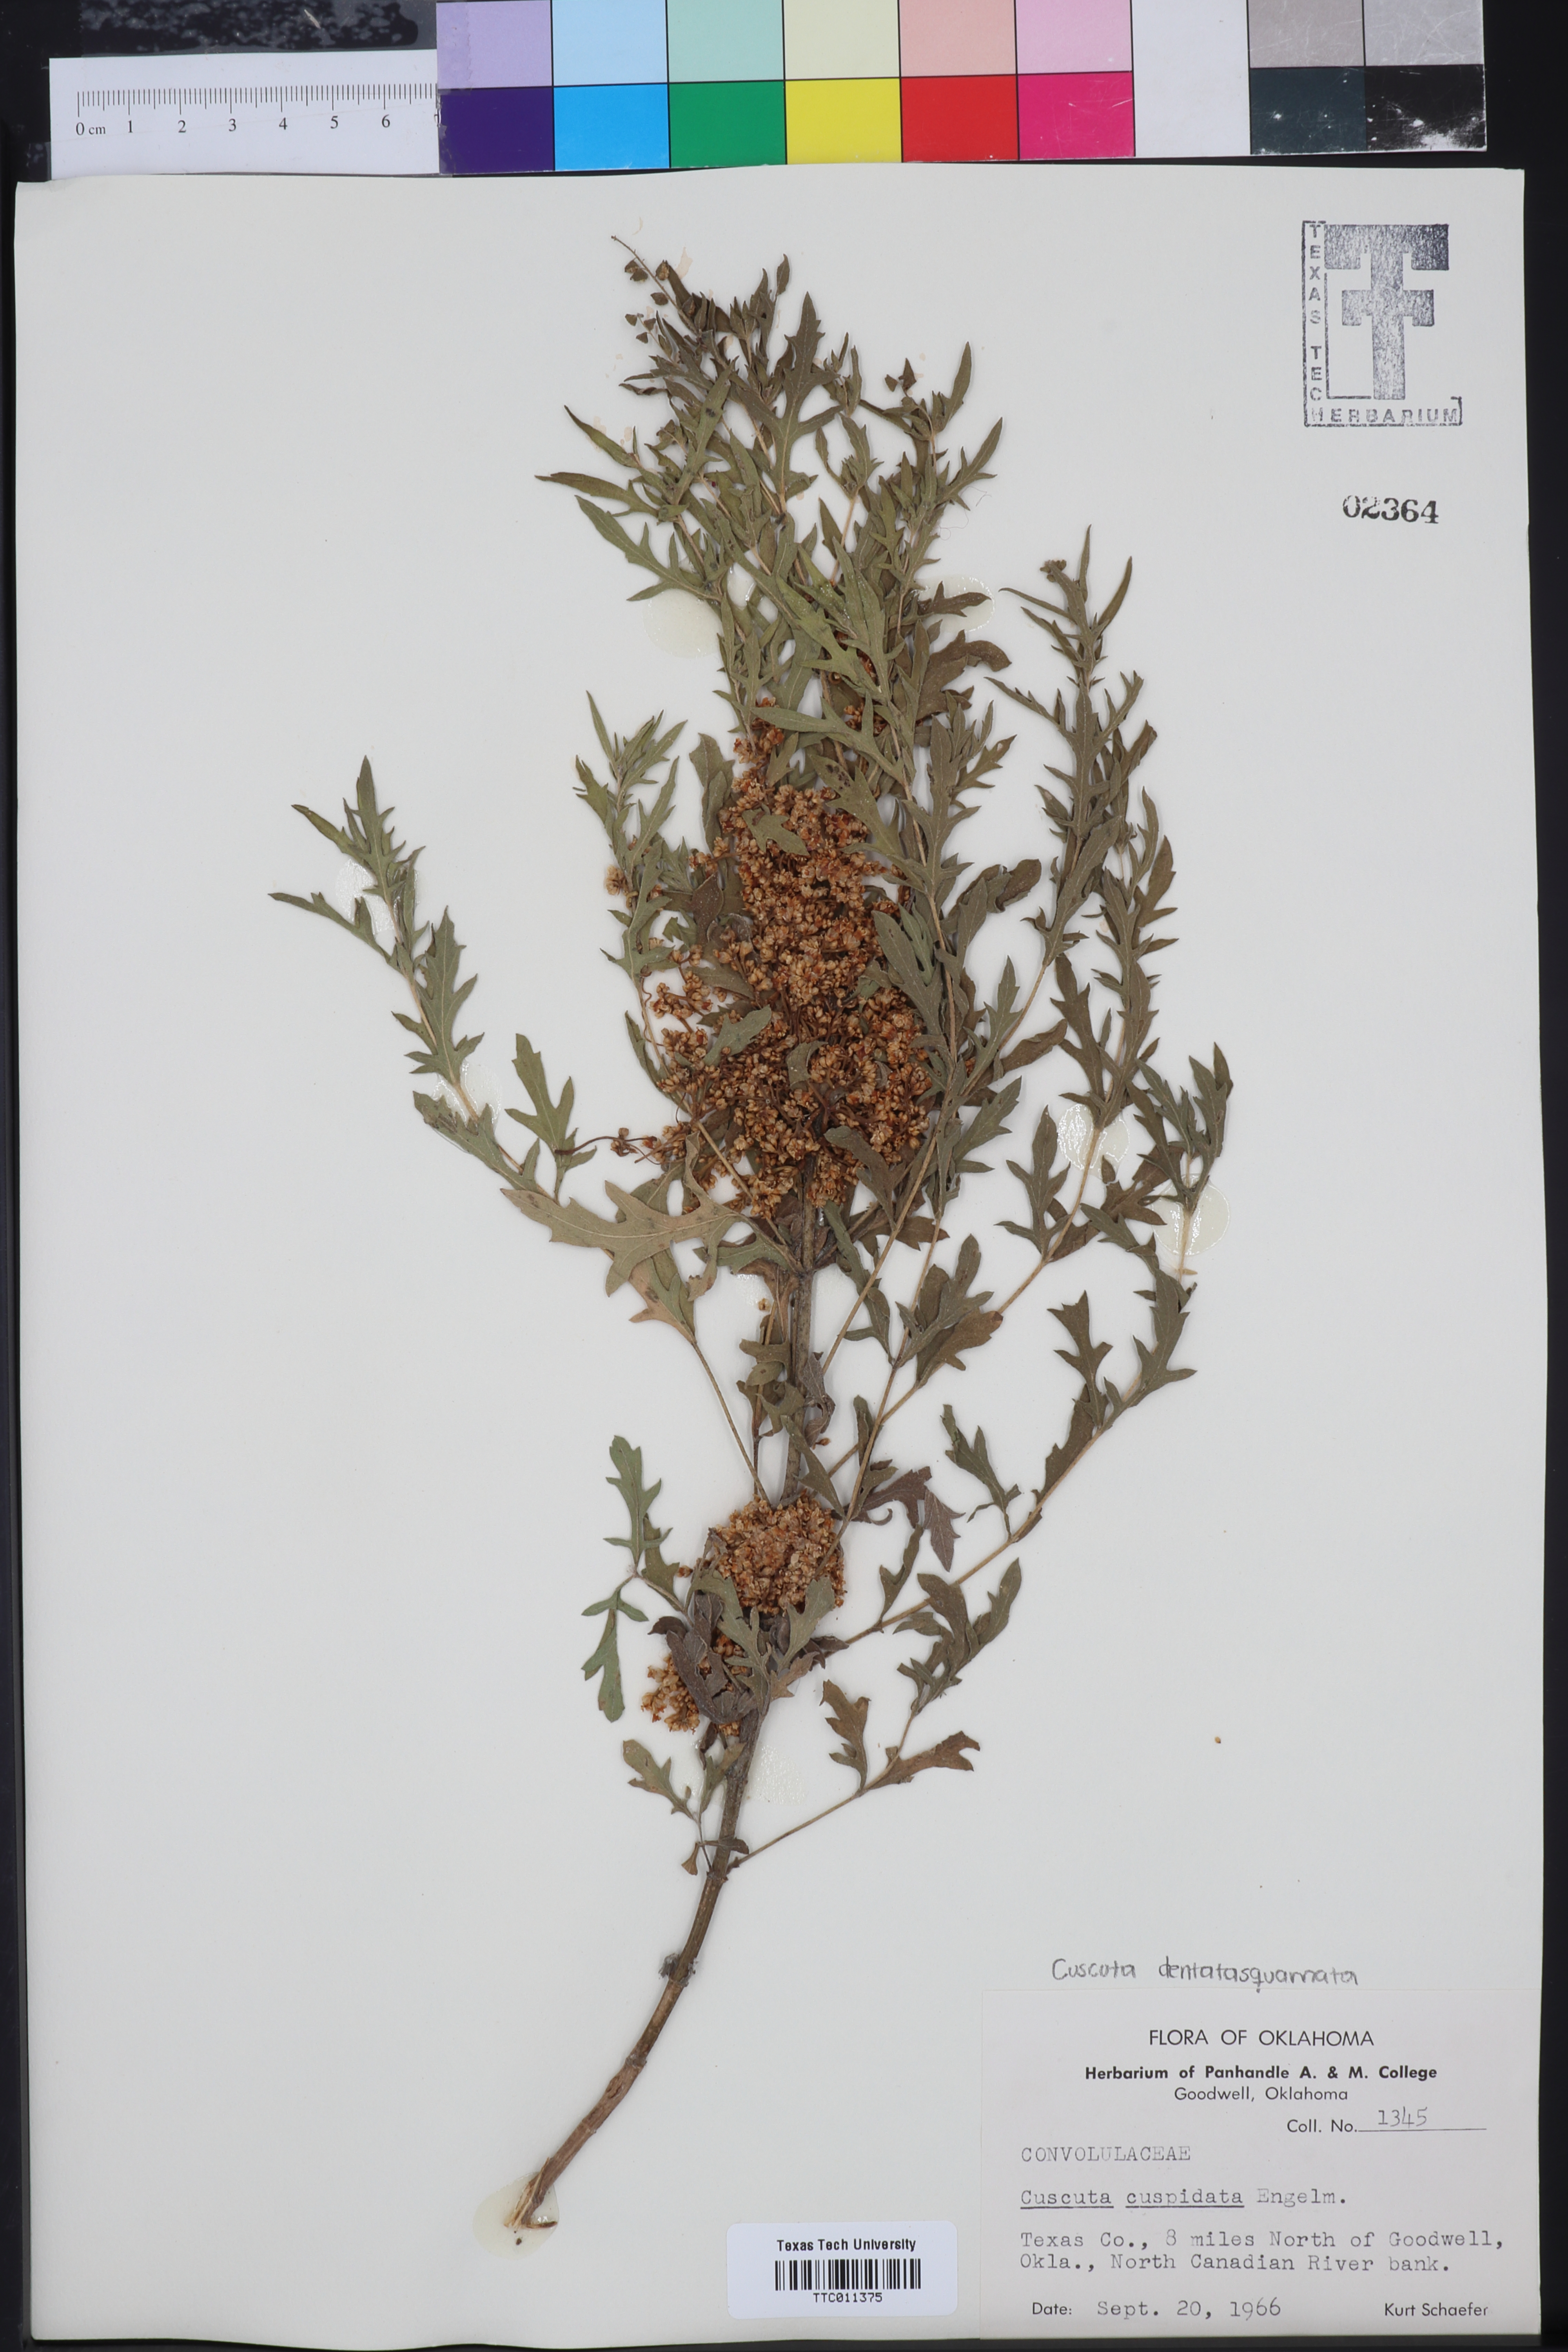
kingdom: Plantae
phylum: Tracheophyta
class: Magnoliopsida
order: Solanales
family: Convolvulaceae
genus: Cuscuta
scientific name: Cuscuta cuspidata
